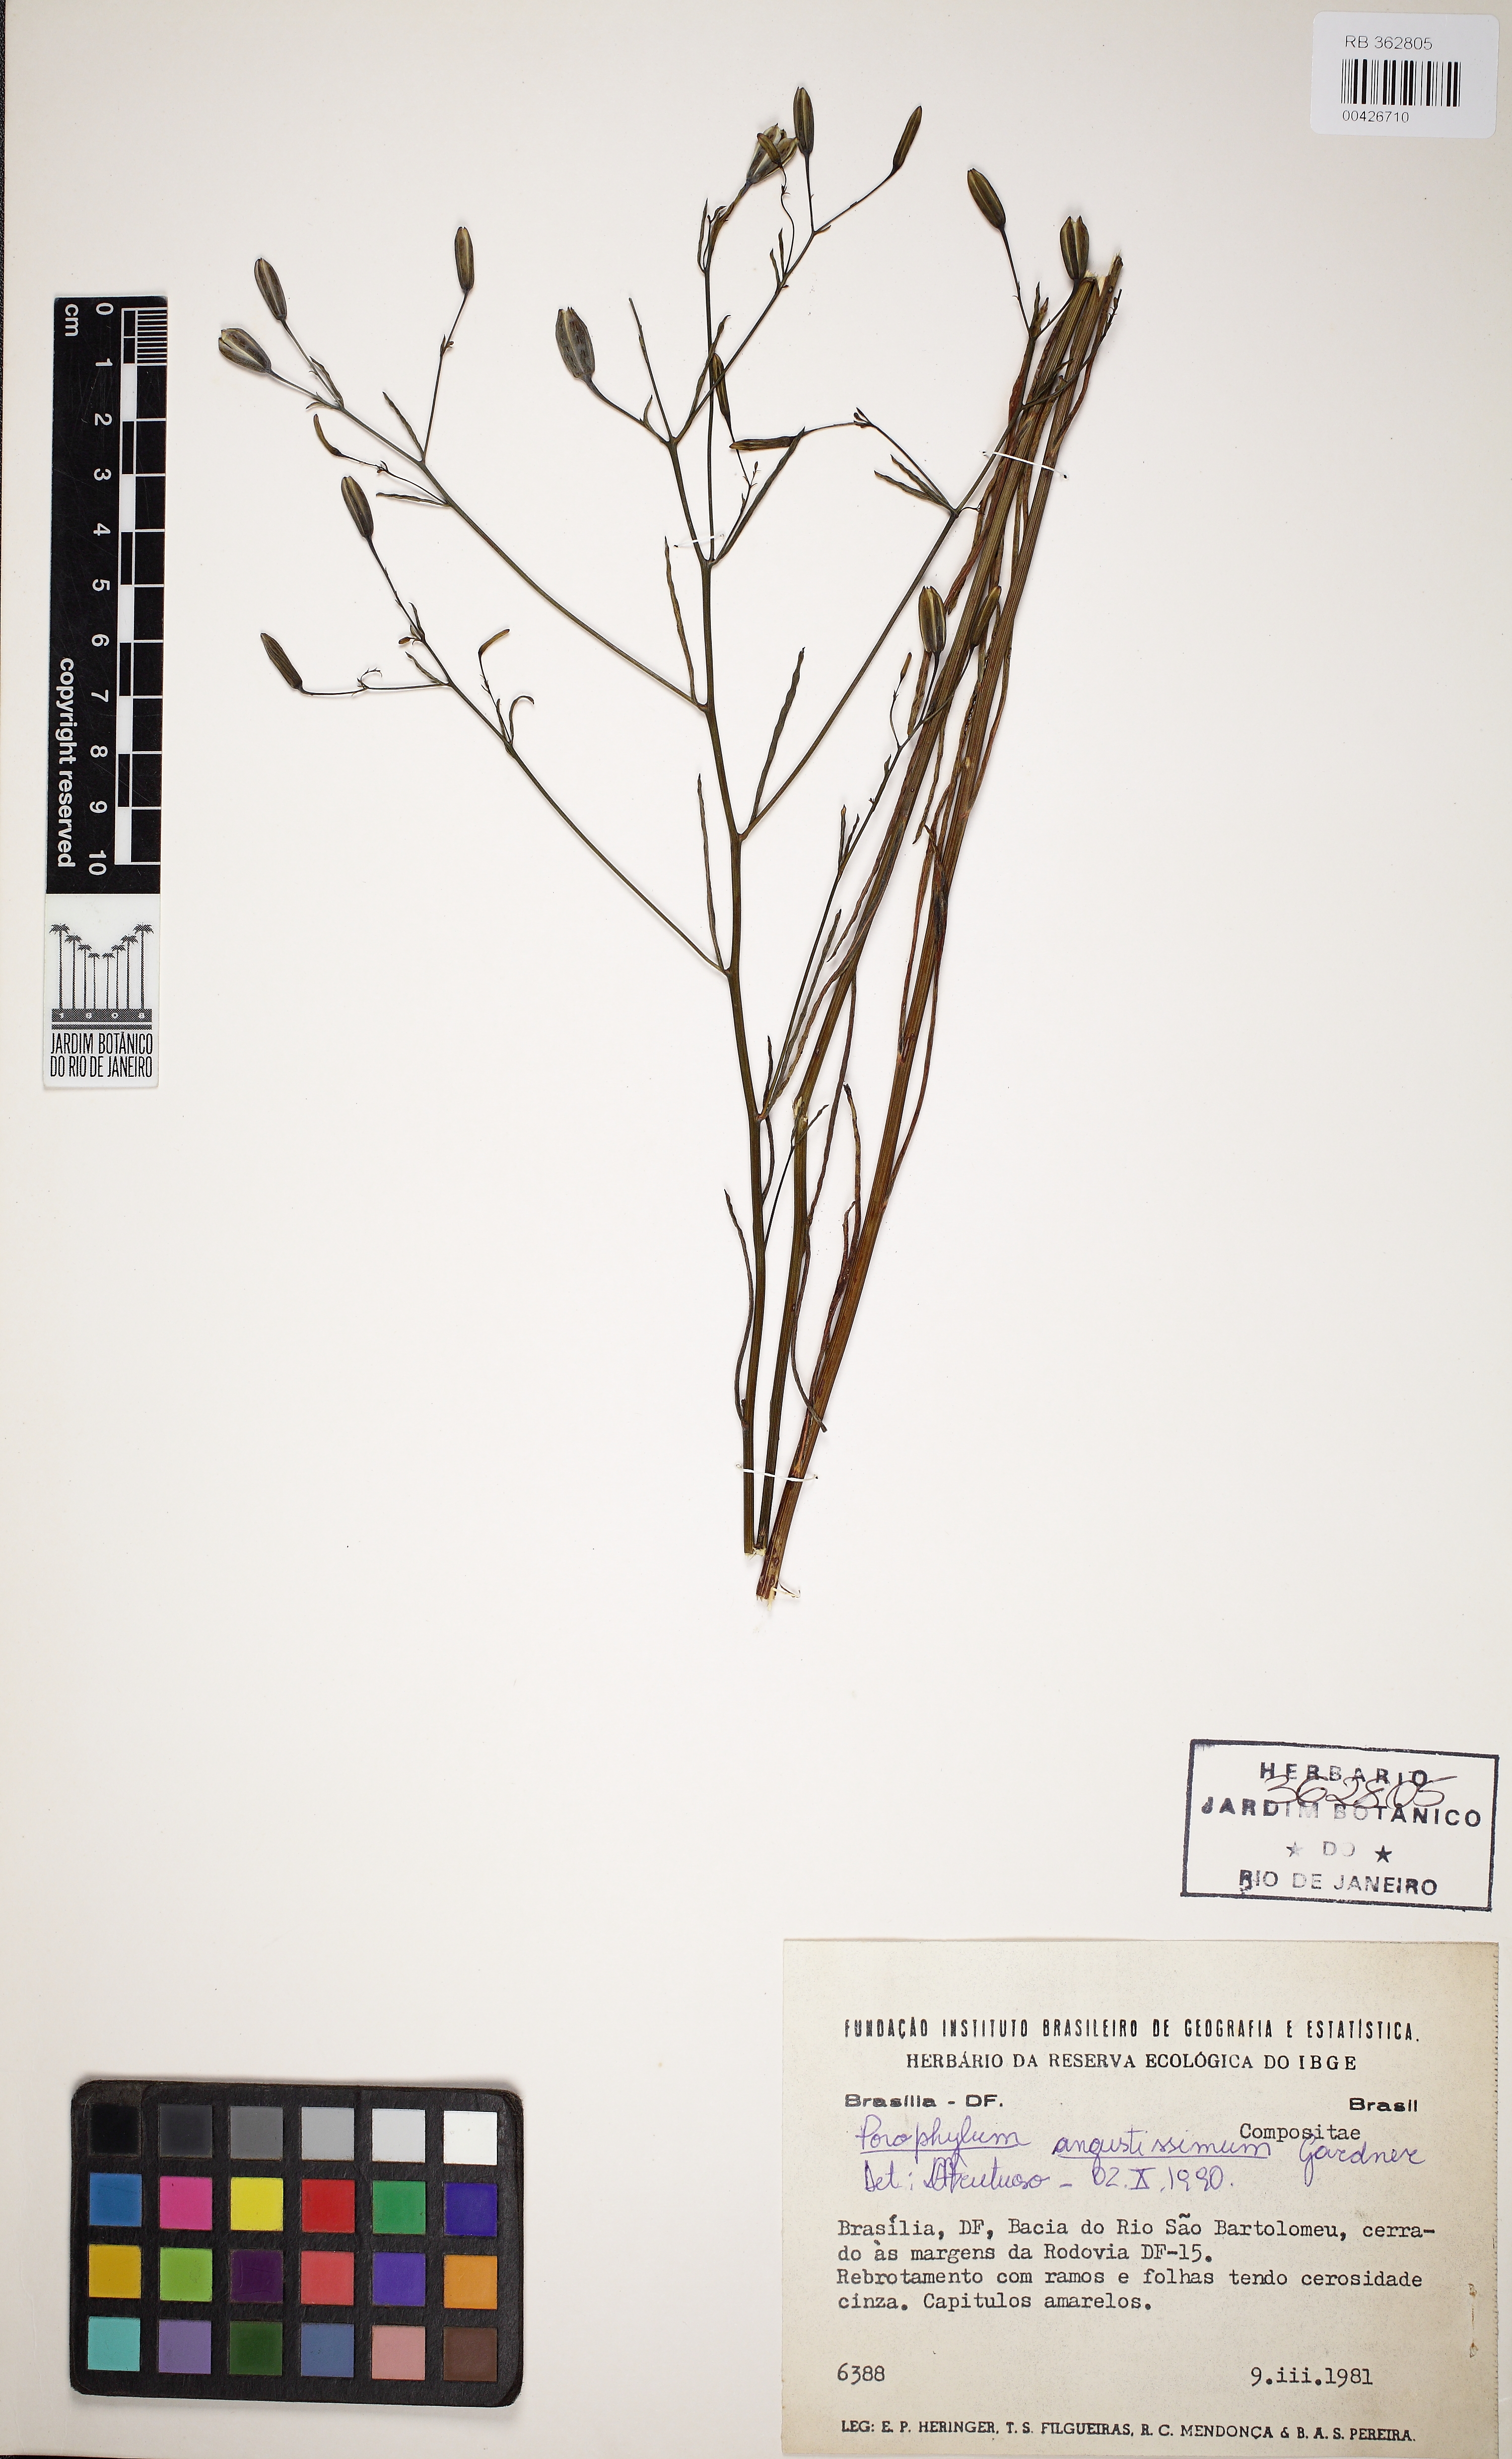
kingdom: Plantae
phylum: Tracheophyta
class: Magnoliopsida
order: Asterales
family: Asteraceae
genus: Porophyllum
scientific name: Porophyllum angustissimum
